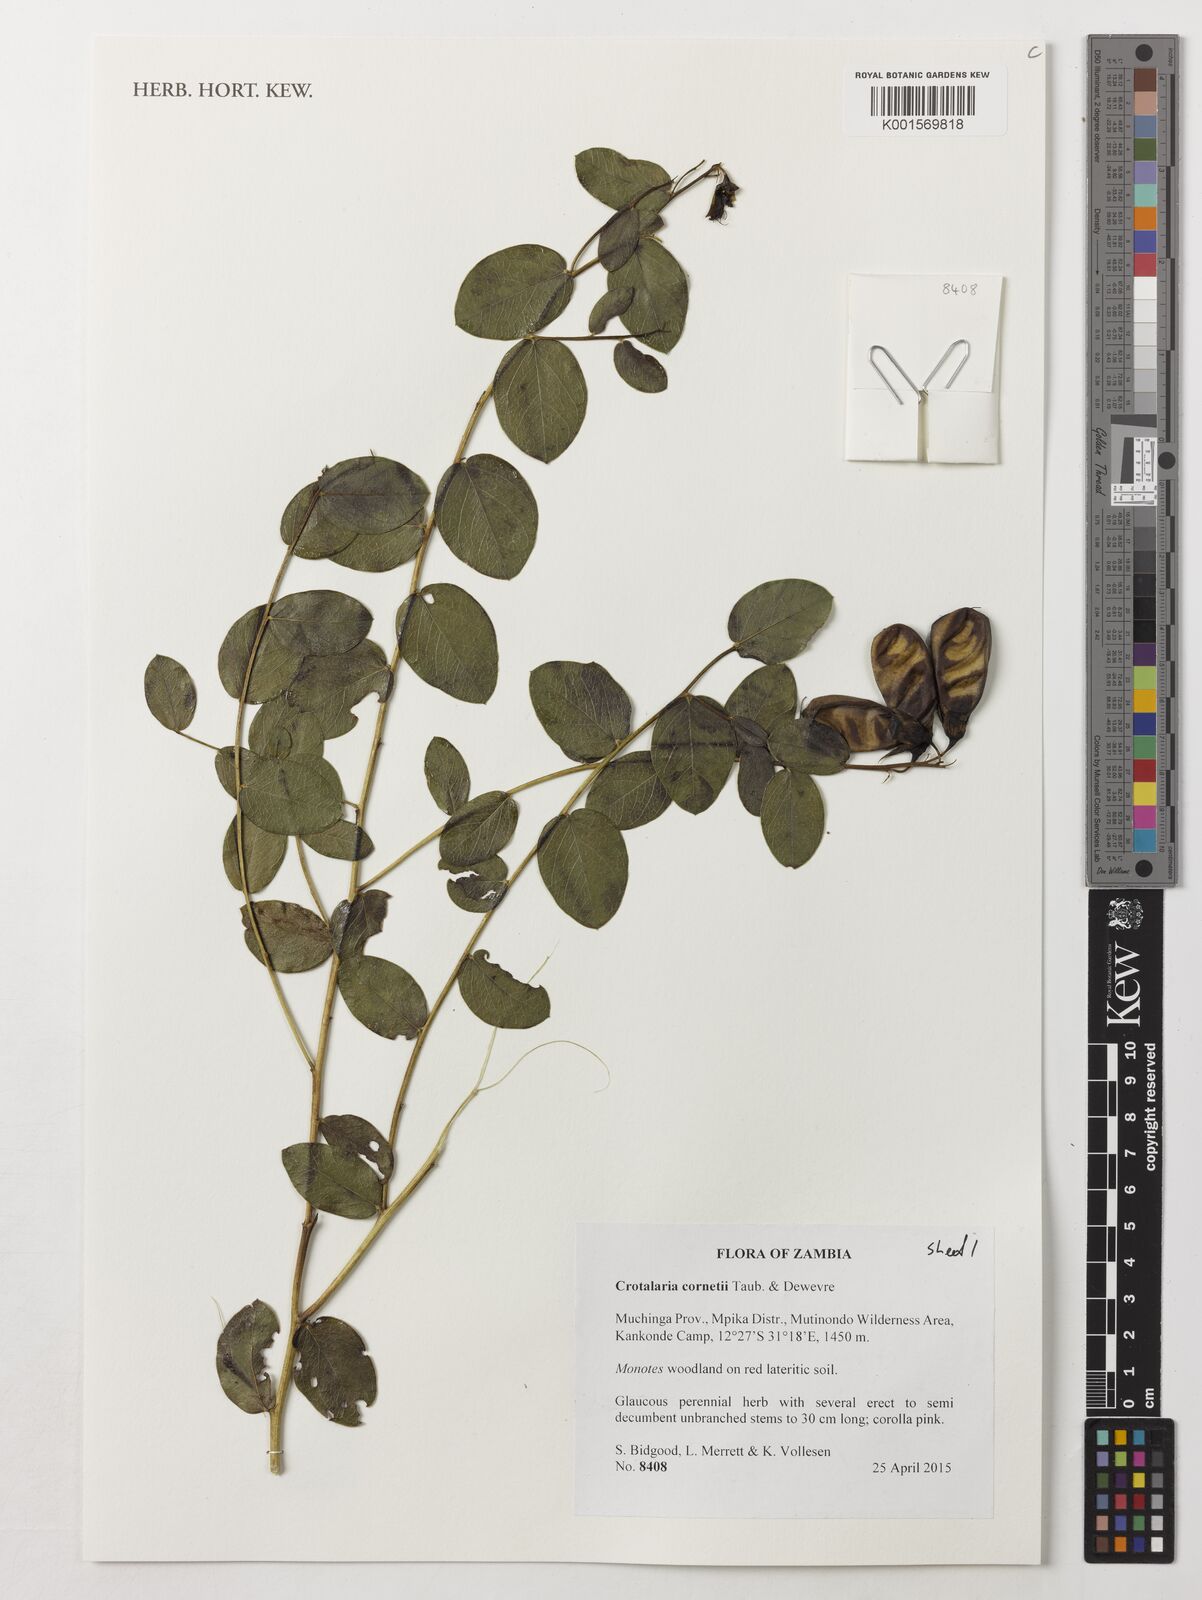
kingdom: Plantae
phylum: Tracheophyta
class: Magnoliopsida
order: Fabales
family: Fabaceae
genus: Crotalaria
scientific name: Crotalaria cornetii
